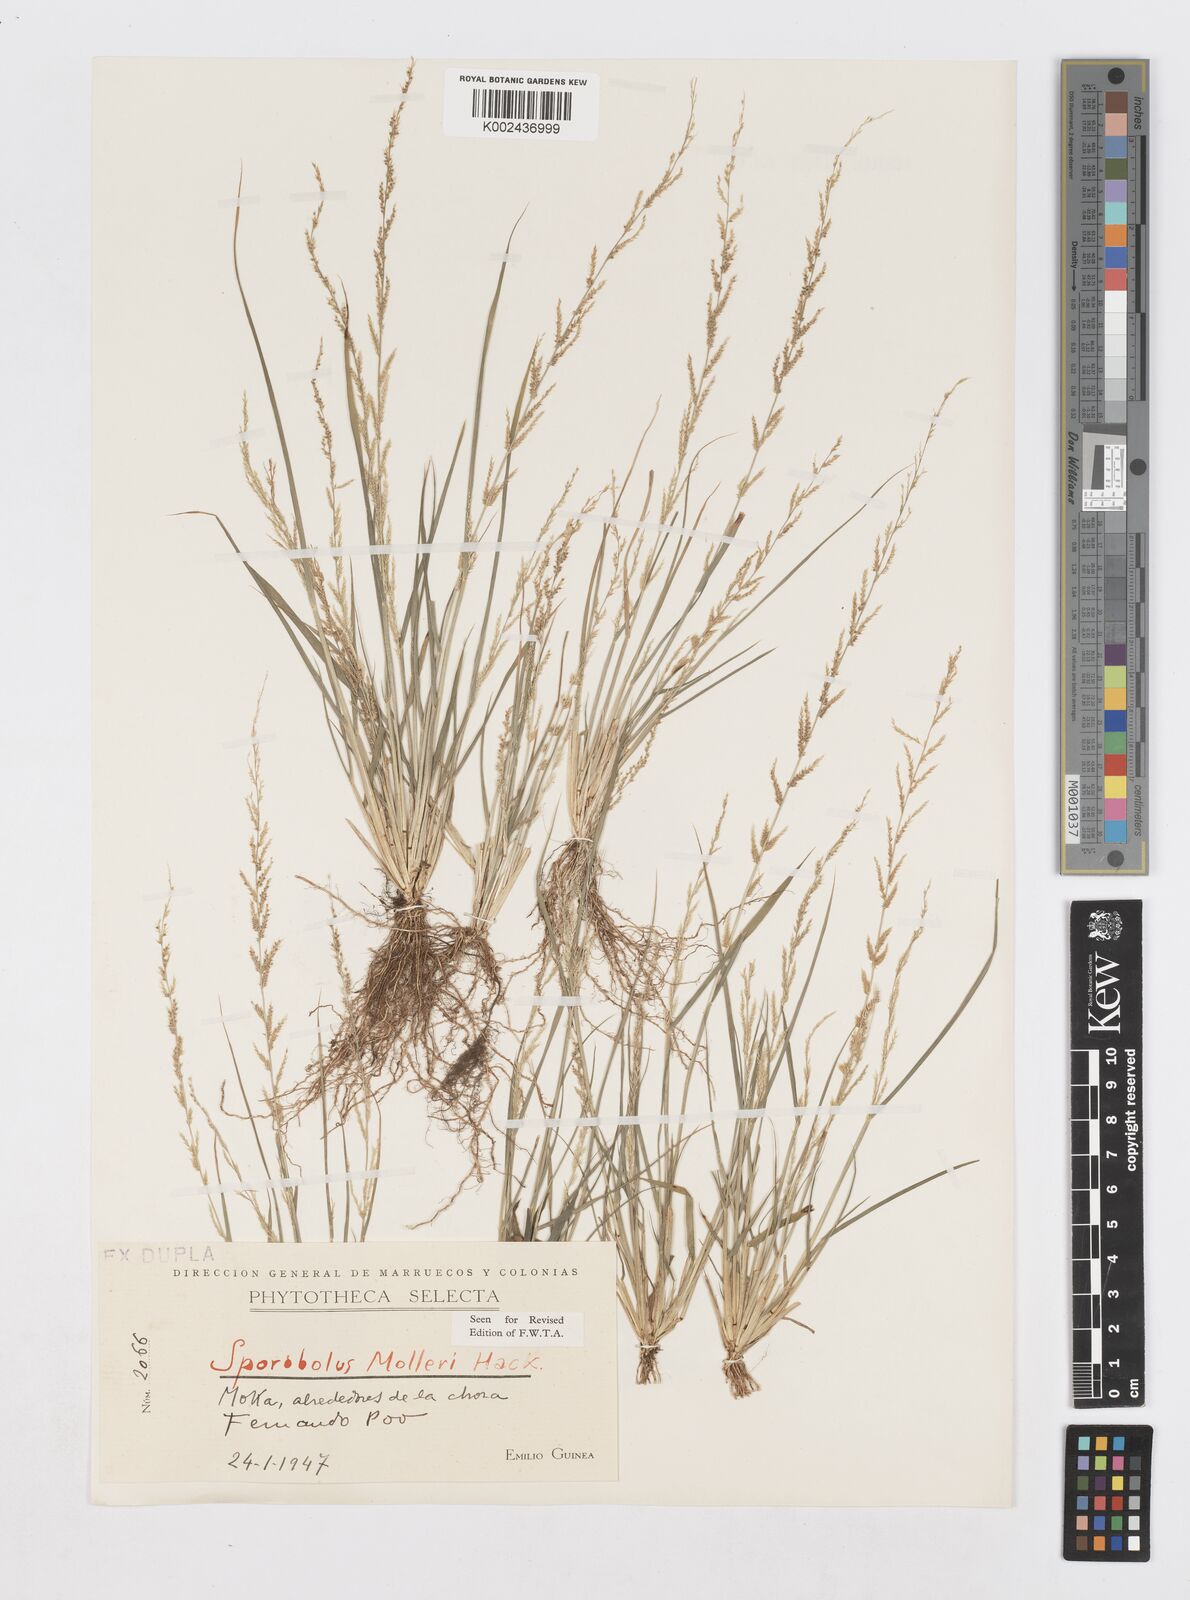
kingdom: Plantae
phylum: Tracheophyta
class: Liliopsida
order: Poales
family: Poaceae
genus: Sporobolus
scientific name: Sporobolus molleri
